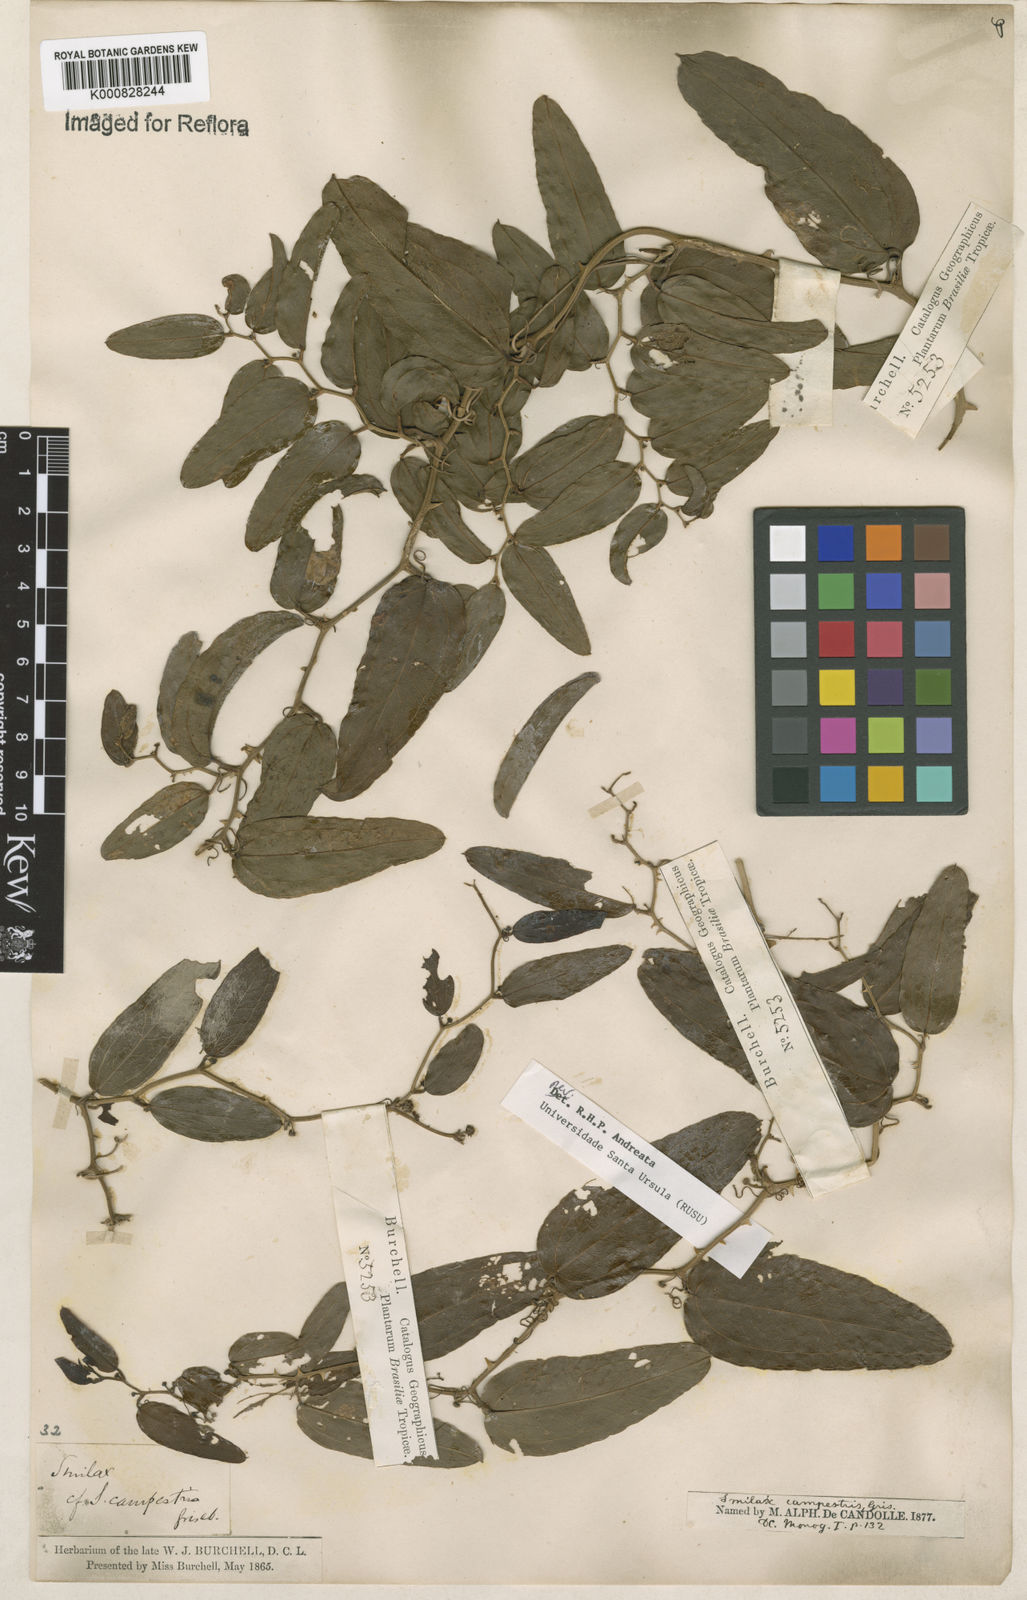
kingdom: Plantae
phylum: Tracheophyta
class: Liliopsida
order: Liliales
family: Smilacaceae
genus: Smilax
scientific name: Smilax campestris
